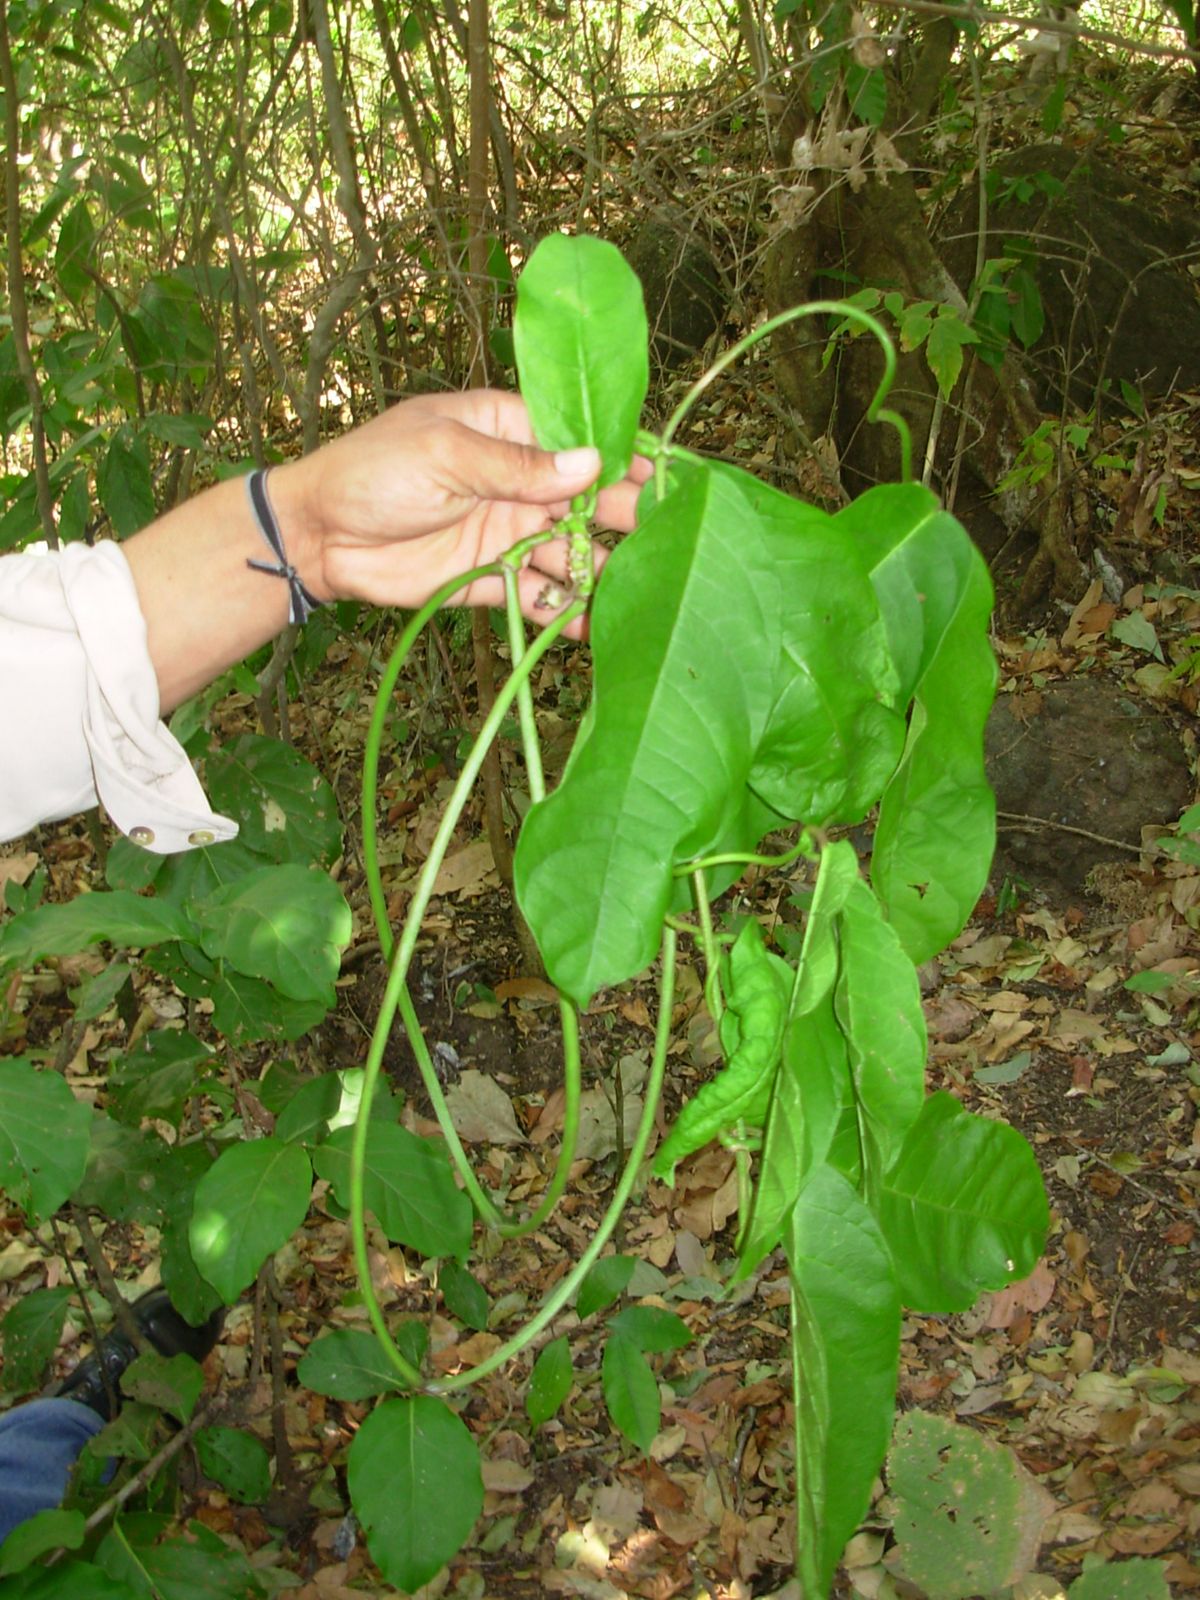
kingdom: Plantae
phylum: Tracheophyta
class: Magnoliopsida
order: Gentianales
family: Apocynaceae
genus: Echites
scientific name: Echites yucatanensis
